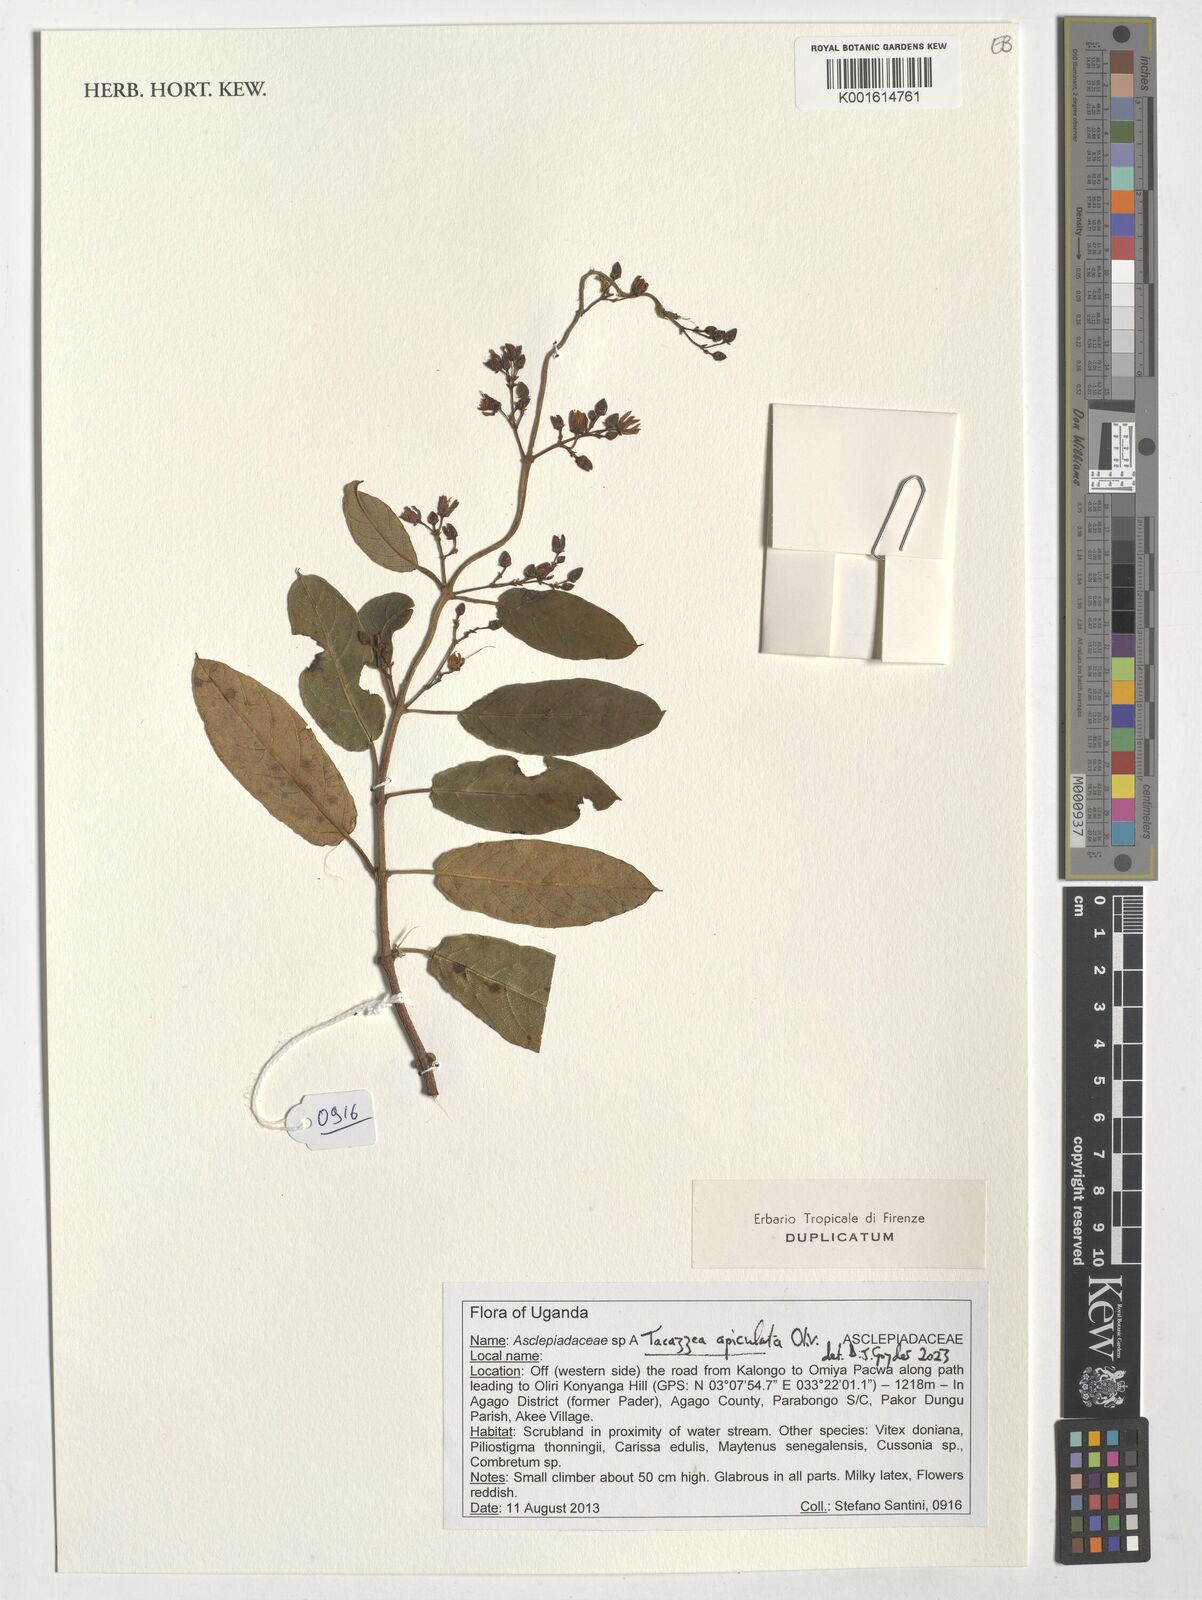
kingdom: Plantae
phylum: Tracheophyta
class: Magnoliopsida
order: Gentianales
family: Apocynaceae
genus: Tacazzea
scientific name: Tacazzea apiculata
